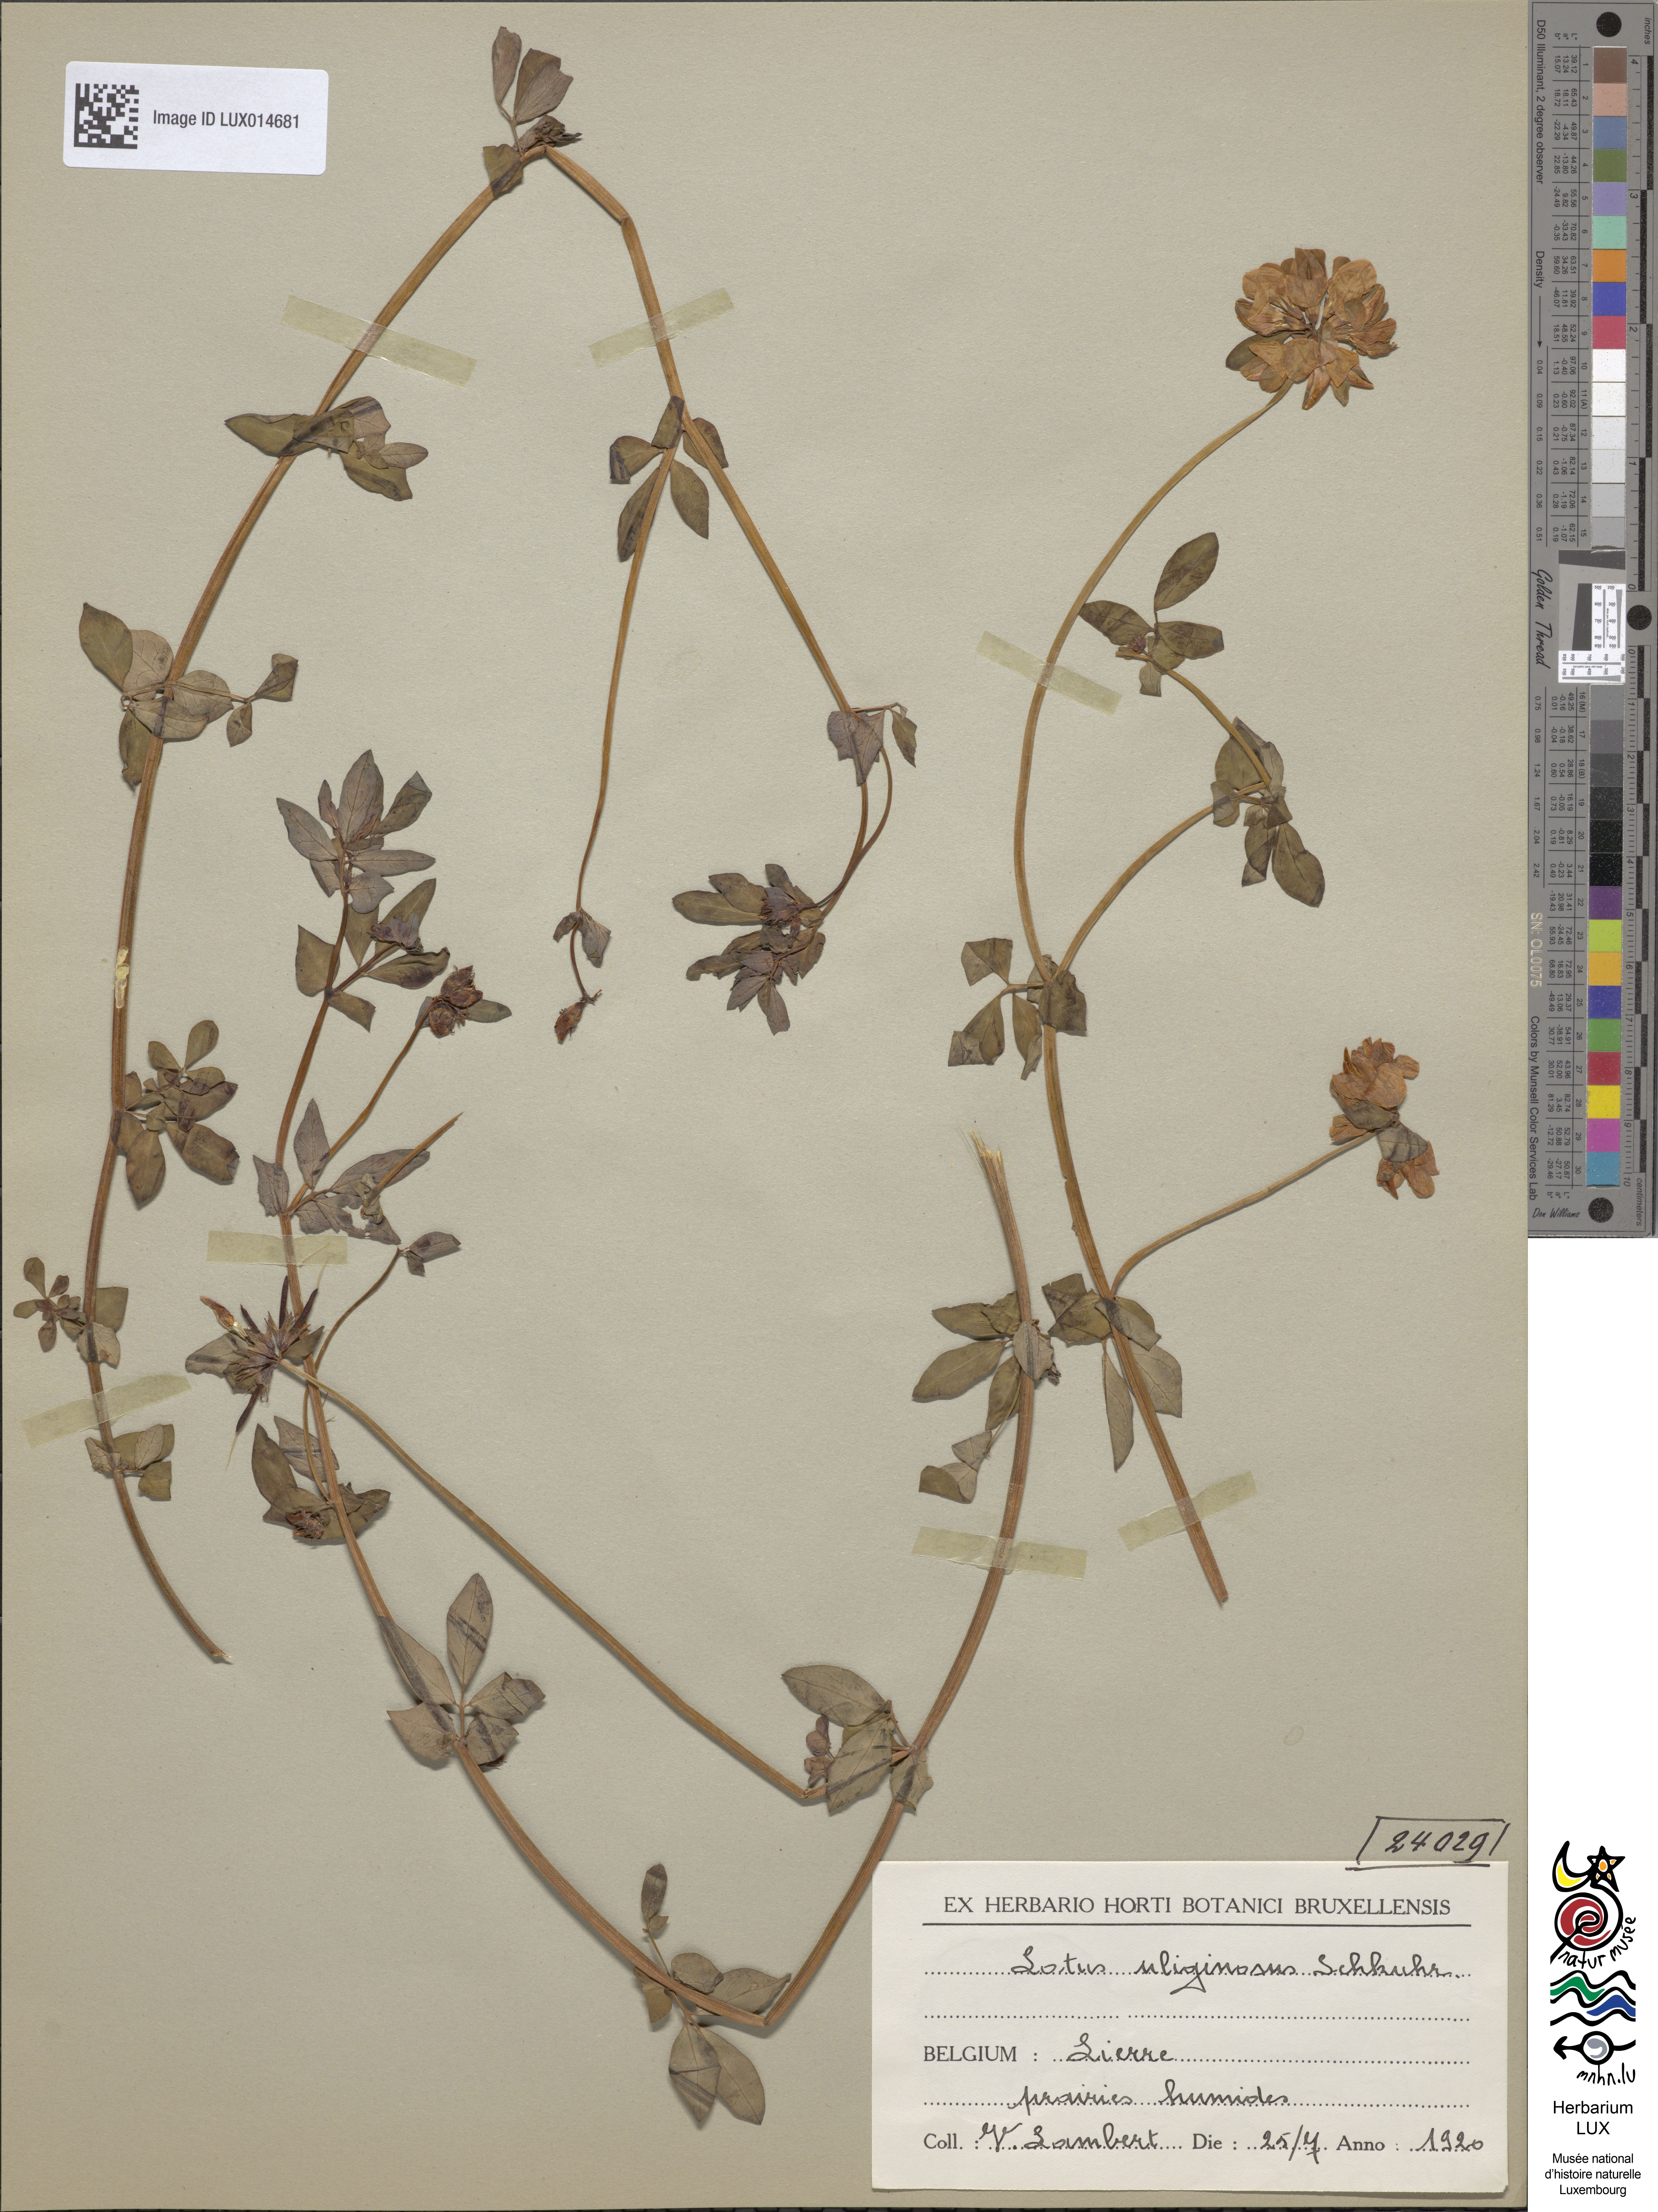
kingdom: Plantae
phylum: Tracheophyta
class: Magnoliopsida
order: Fabales
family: Fabaceae
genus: Lotus
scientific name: Lotus pedunculatus
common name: Greater birdsfoot-trefoil
